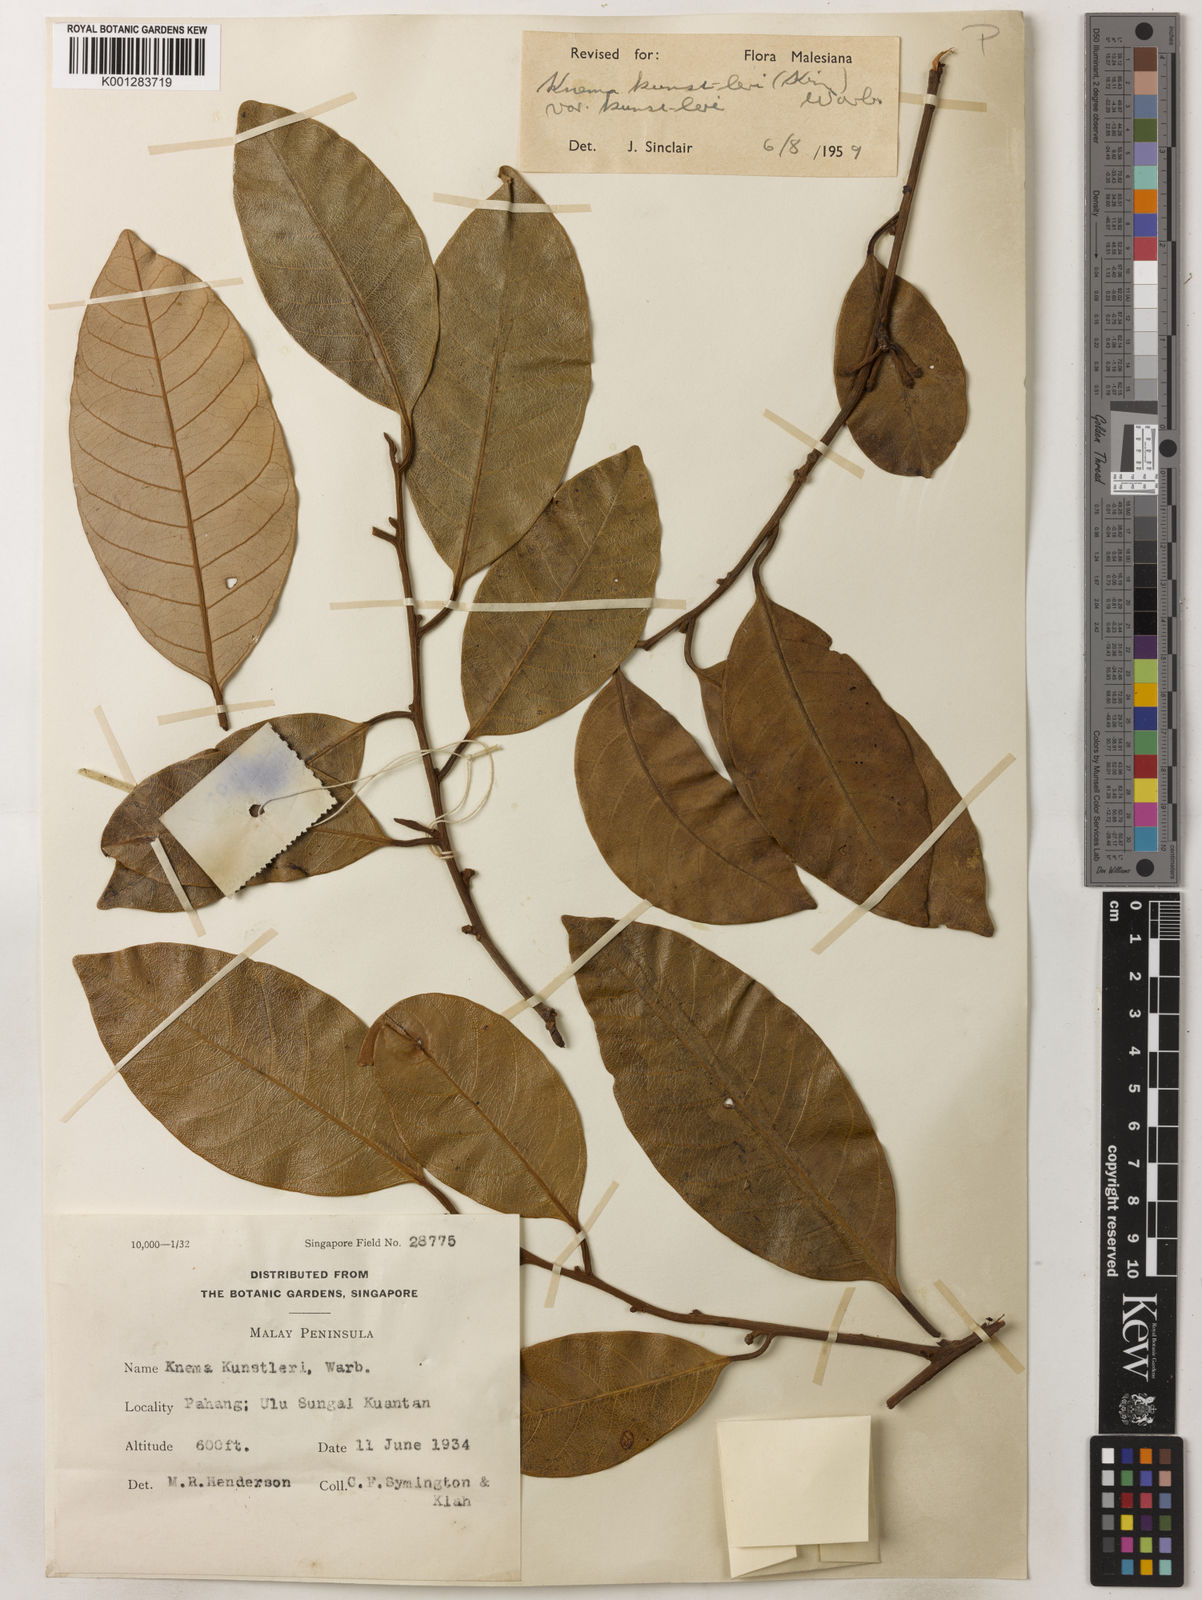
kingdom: Plantae
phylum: Tracheophyta
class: Magnoliopsida
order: Magnoliales
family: Myristicaceae
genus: Knema
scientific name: Knema kunstleri
